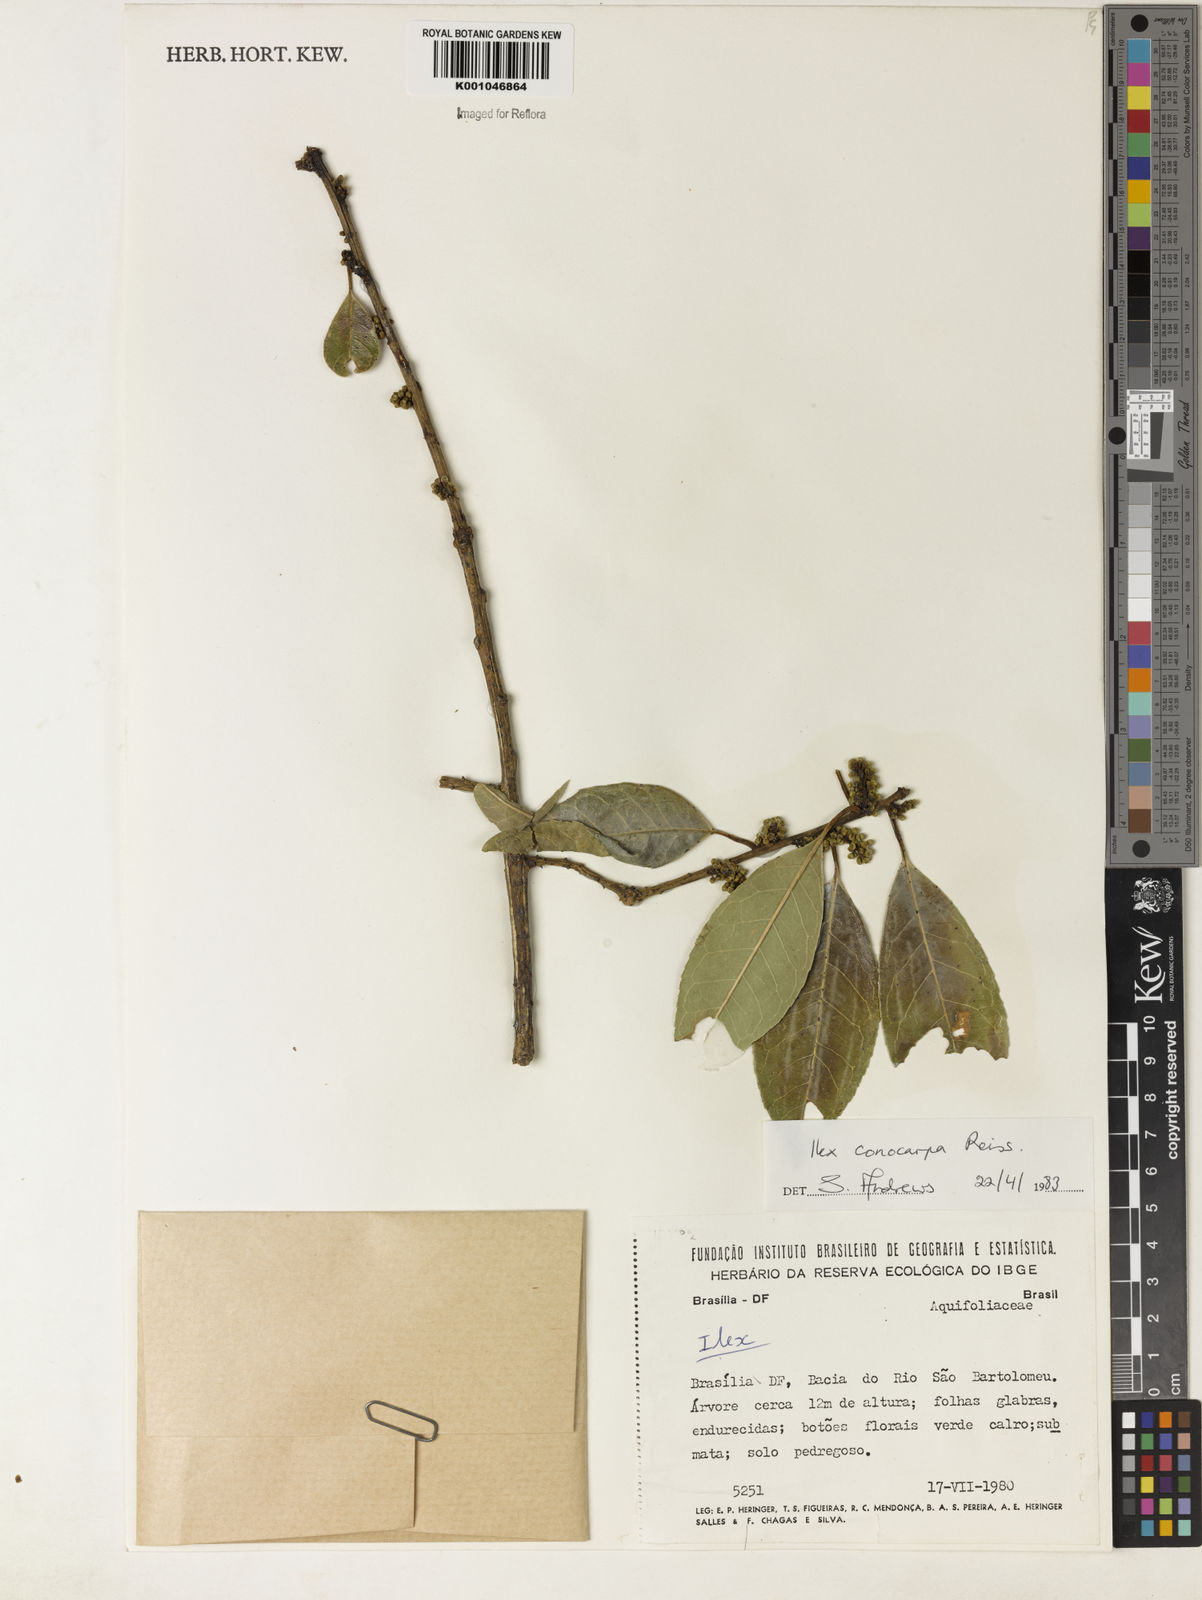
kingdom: Plantae
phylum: Tracheophyta
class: Magnoliopsida
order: Aquifoliales
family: Aquifoliaceae
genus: Ilex
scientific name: Ilex conocarpa
